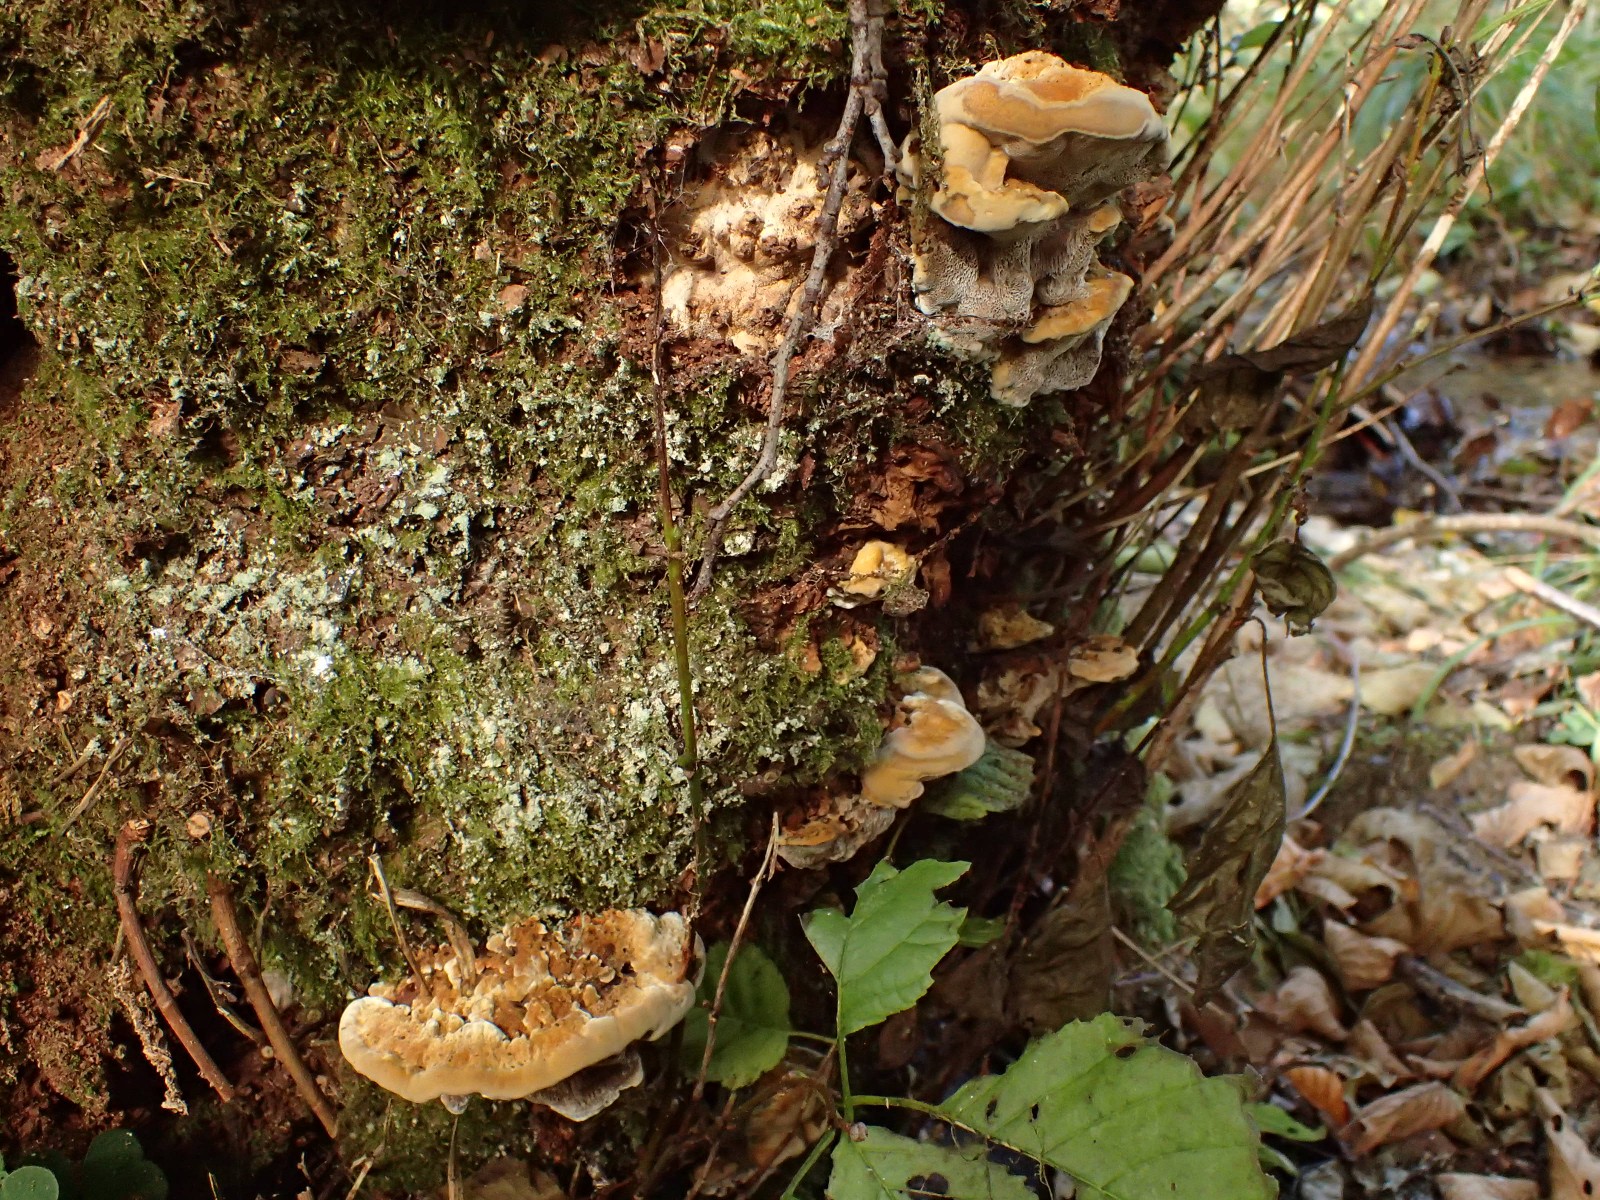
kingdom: Fungi
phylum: Basidiomycota
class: Agaricomycetes
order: Hymenochaetales
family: Hymenochaetaceae
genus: Xanthoporia
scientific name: Xanthoporia radiata
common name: elle-spejlporesvamp
